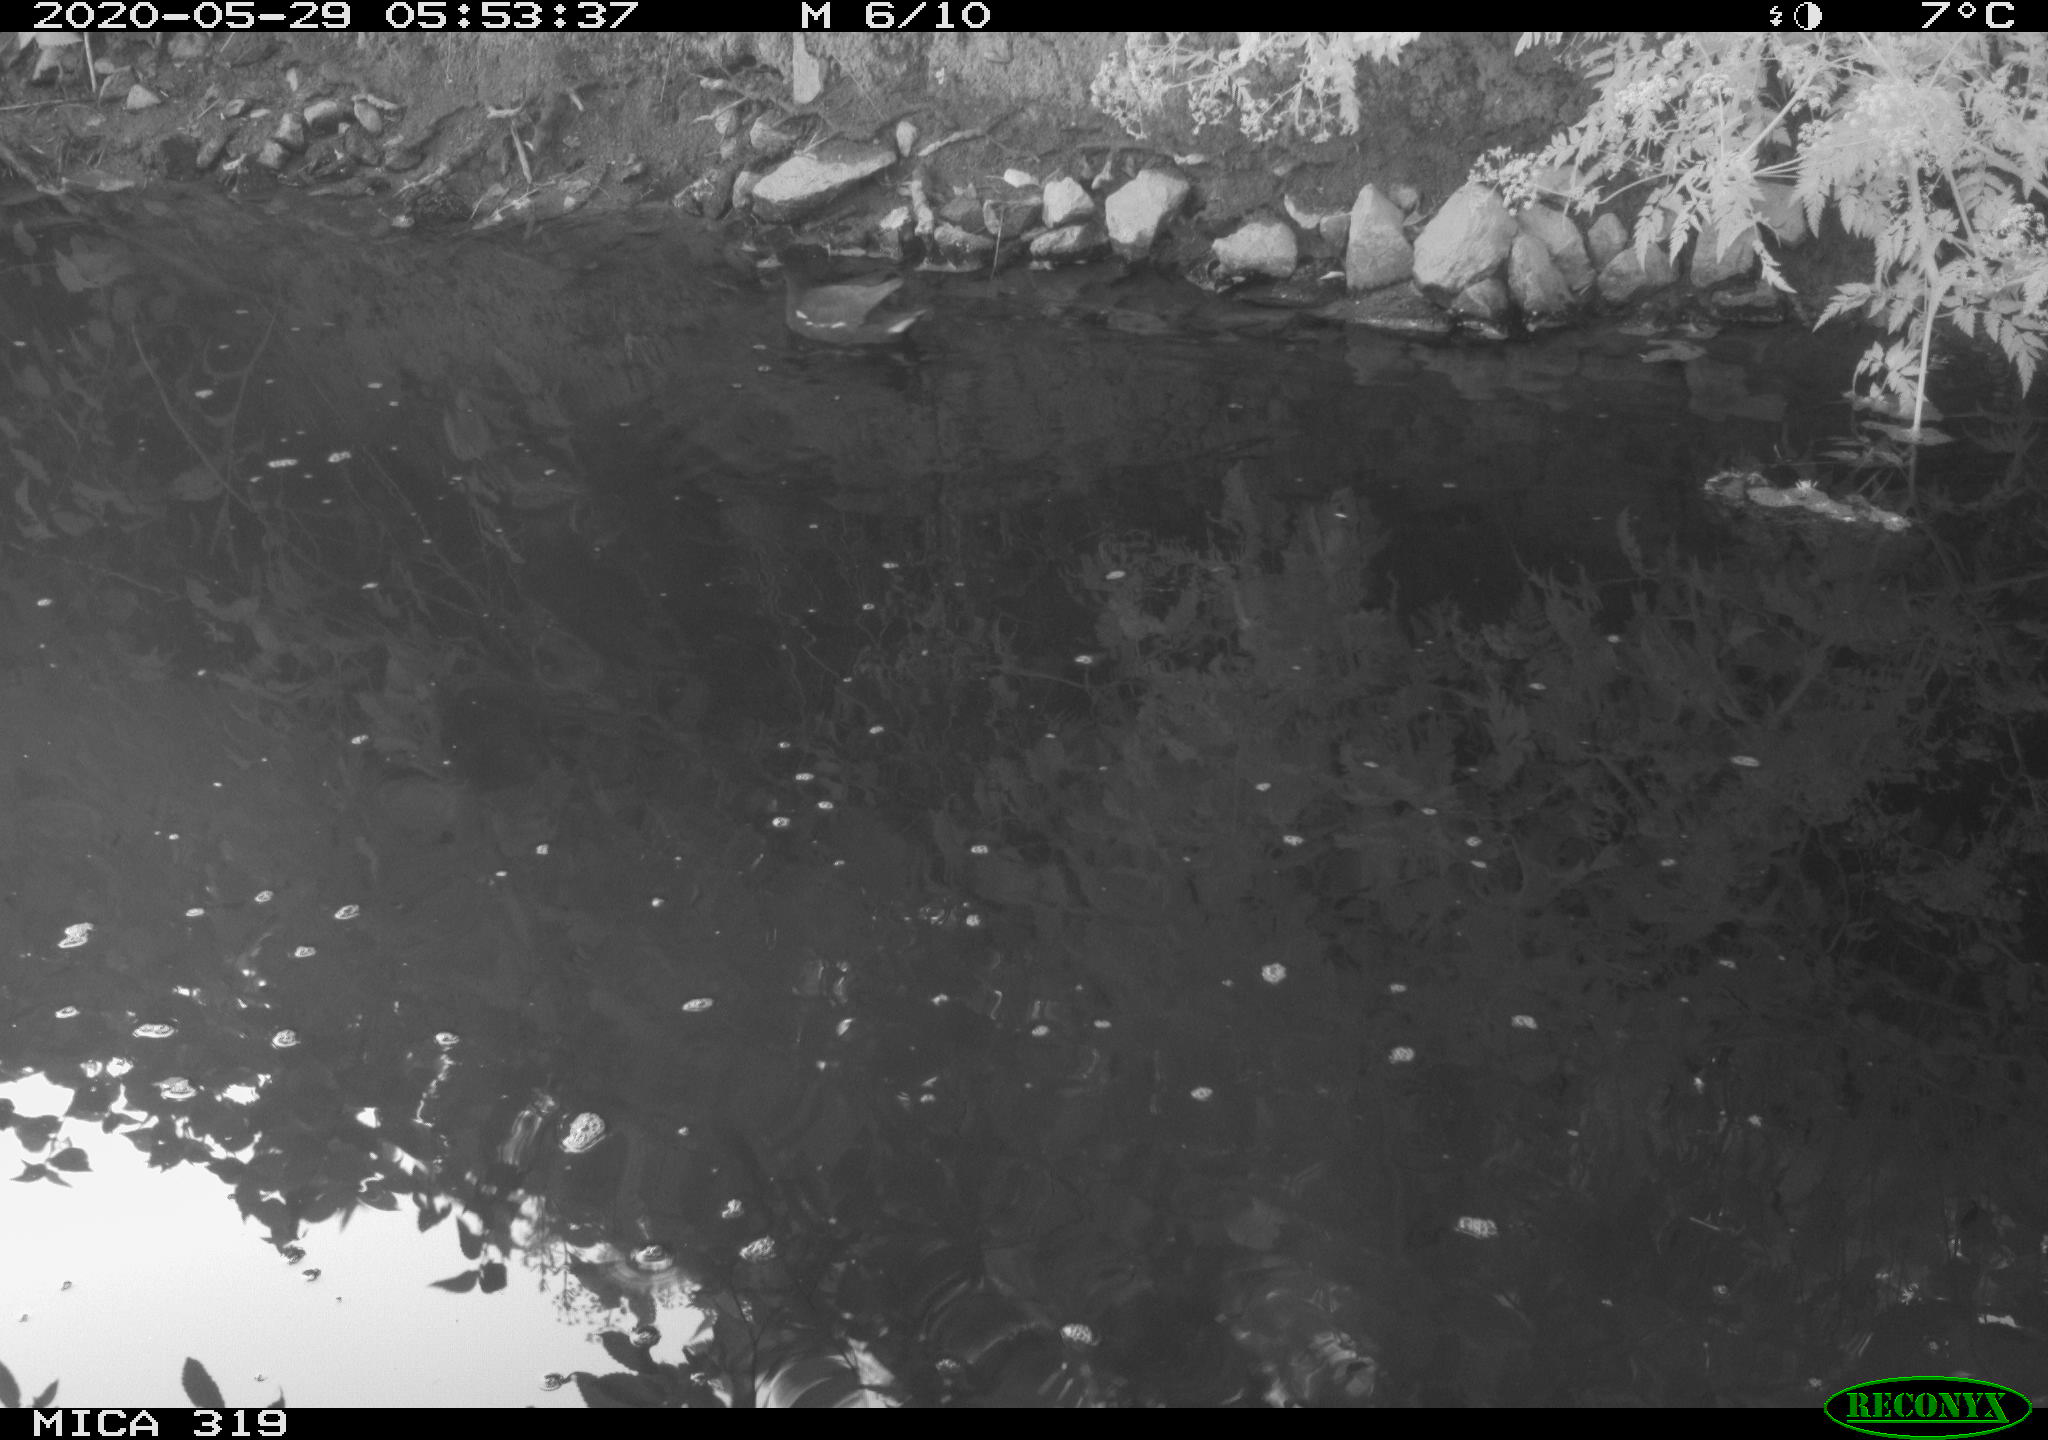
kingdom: Animalia
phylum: Chordata
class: Aves
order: Gruiformes
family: Rallidae
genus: Gallinula
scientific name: Gallinula chloropus
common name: Common moorhen
